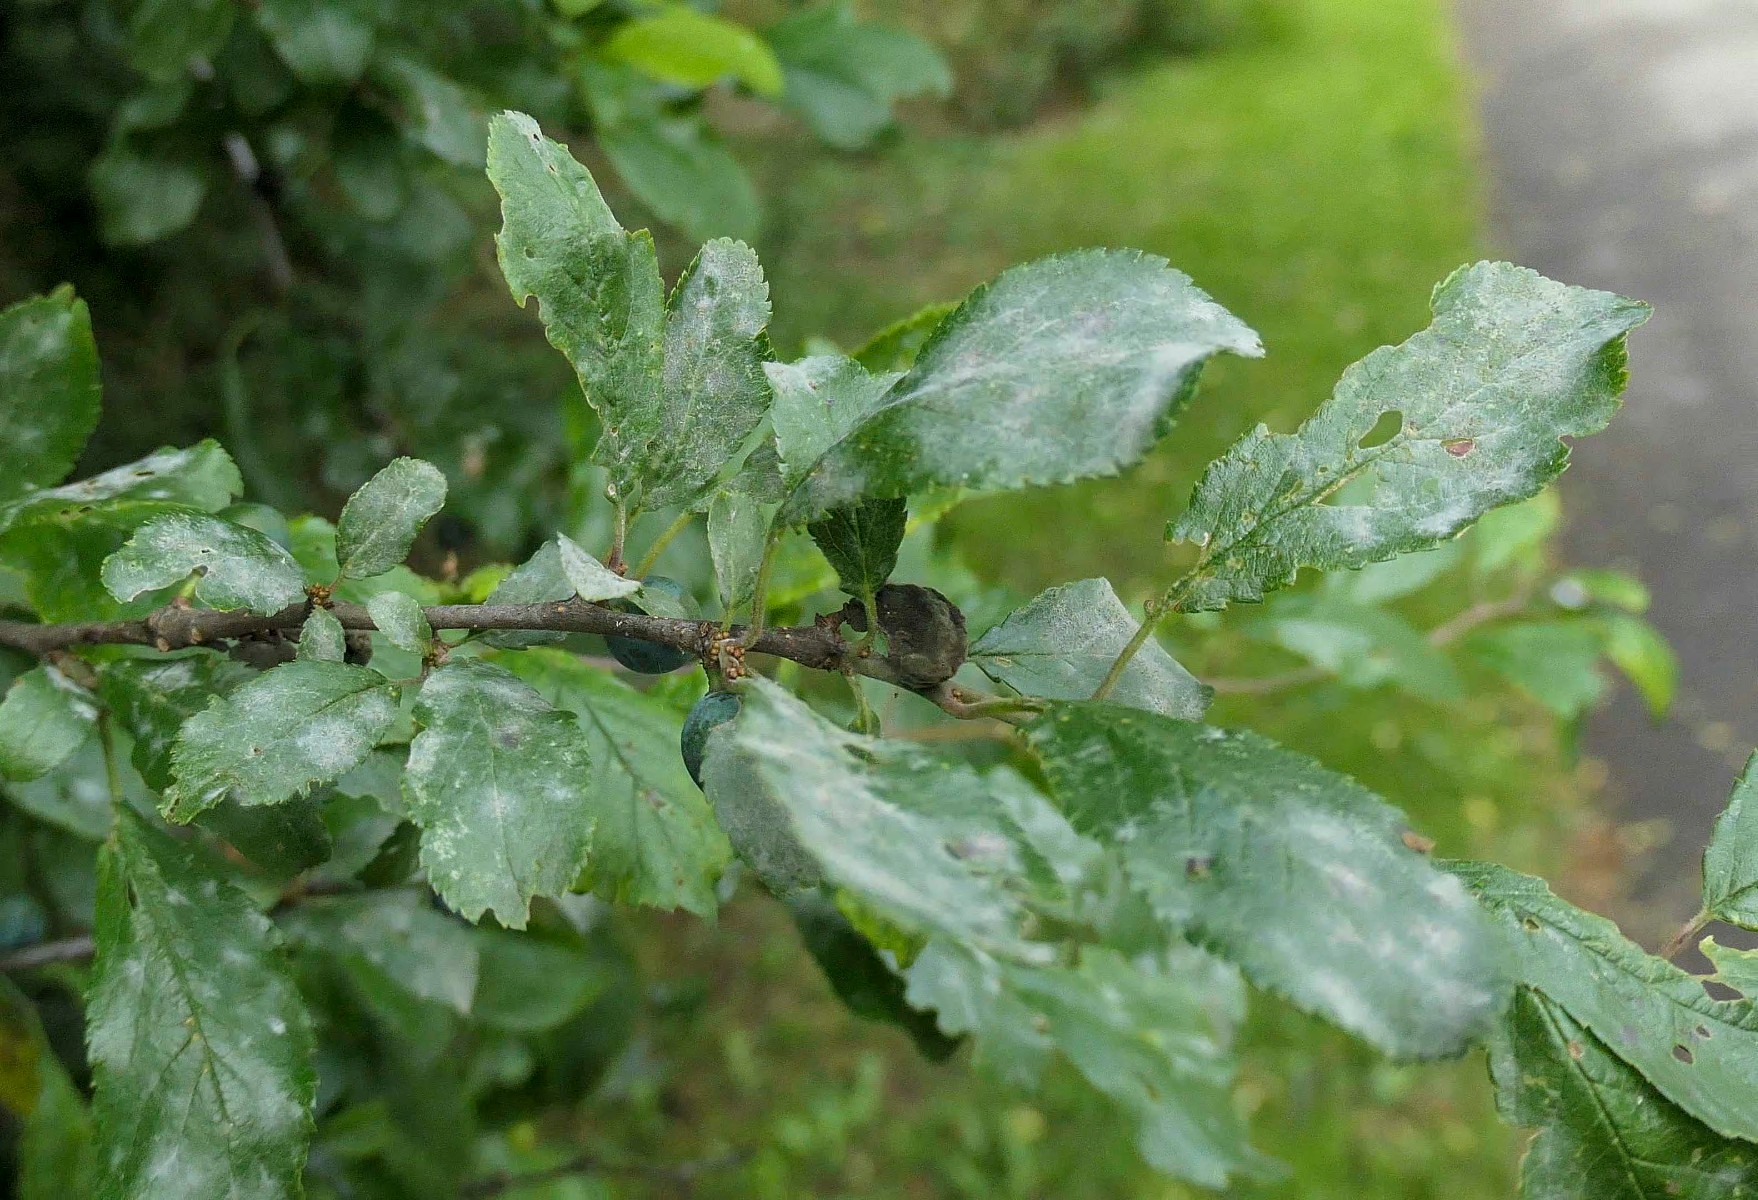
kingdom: Fungi
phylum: Ascomycota
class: Leotiomycetes
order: Helotiales
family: Erysiphaceae
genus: Erysiphe
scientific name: Erysiphe prunastri
